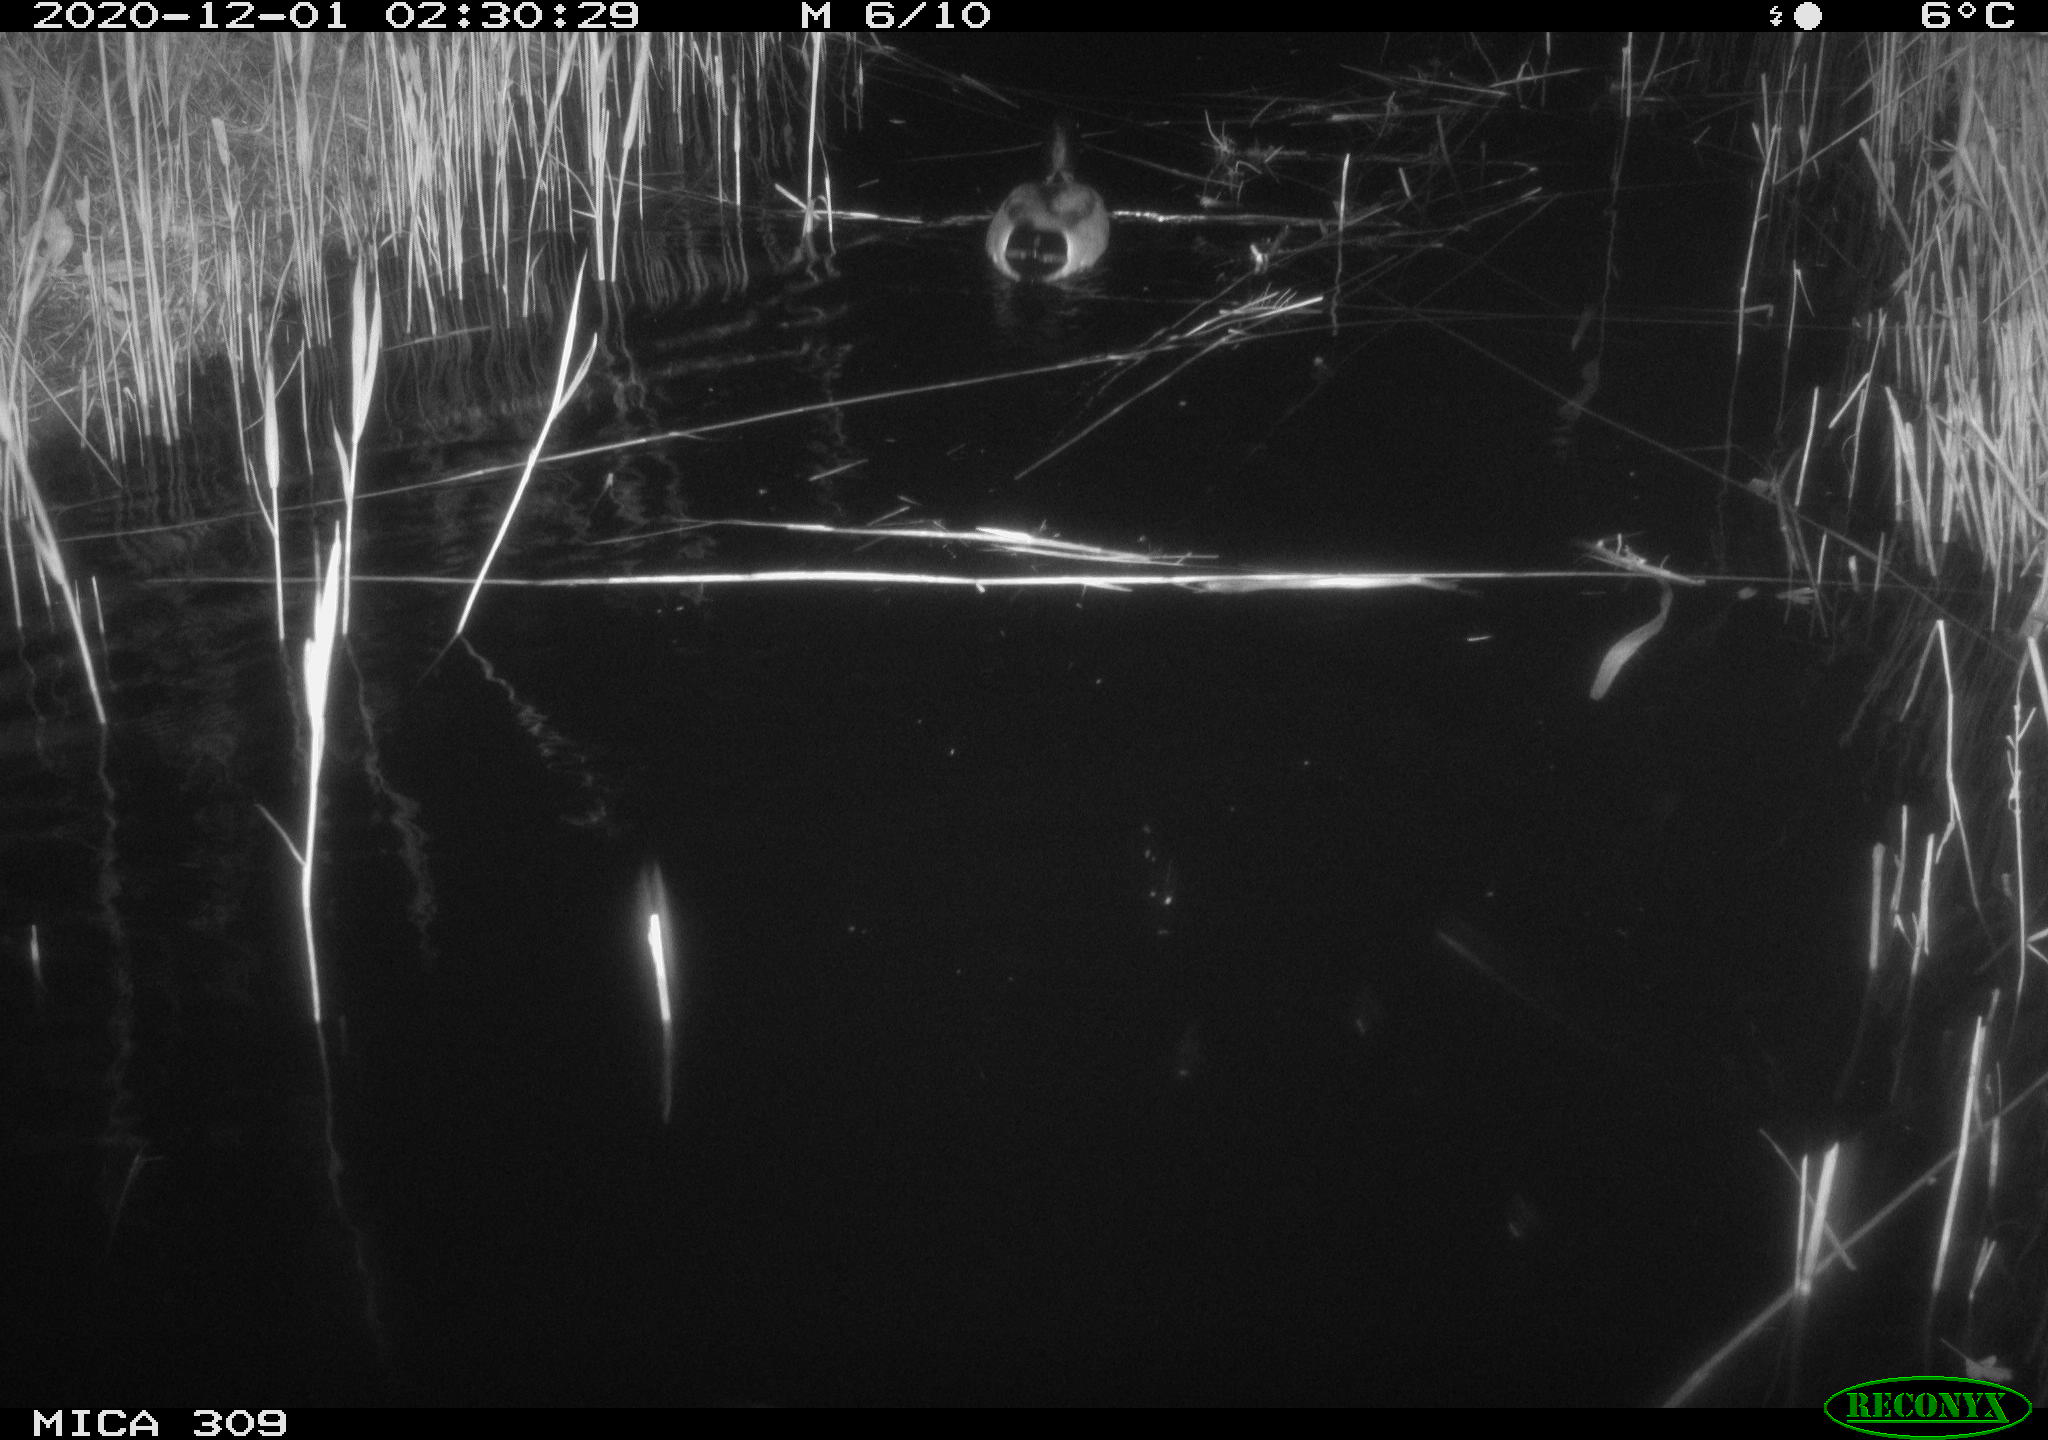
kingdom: Animalia
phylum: Chordata
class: Aves
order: Anseriformes
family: Anatidae
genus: Anas
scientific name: Anas platyrhynchos
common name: Mallard
